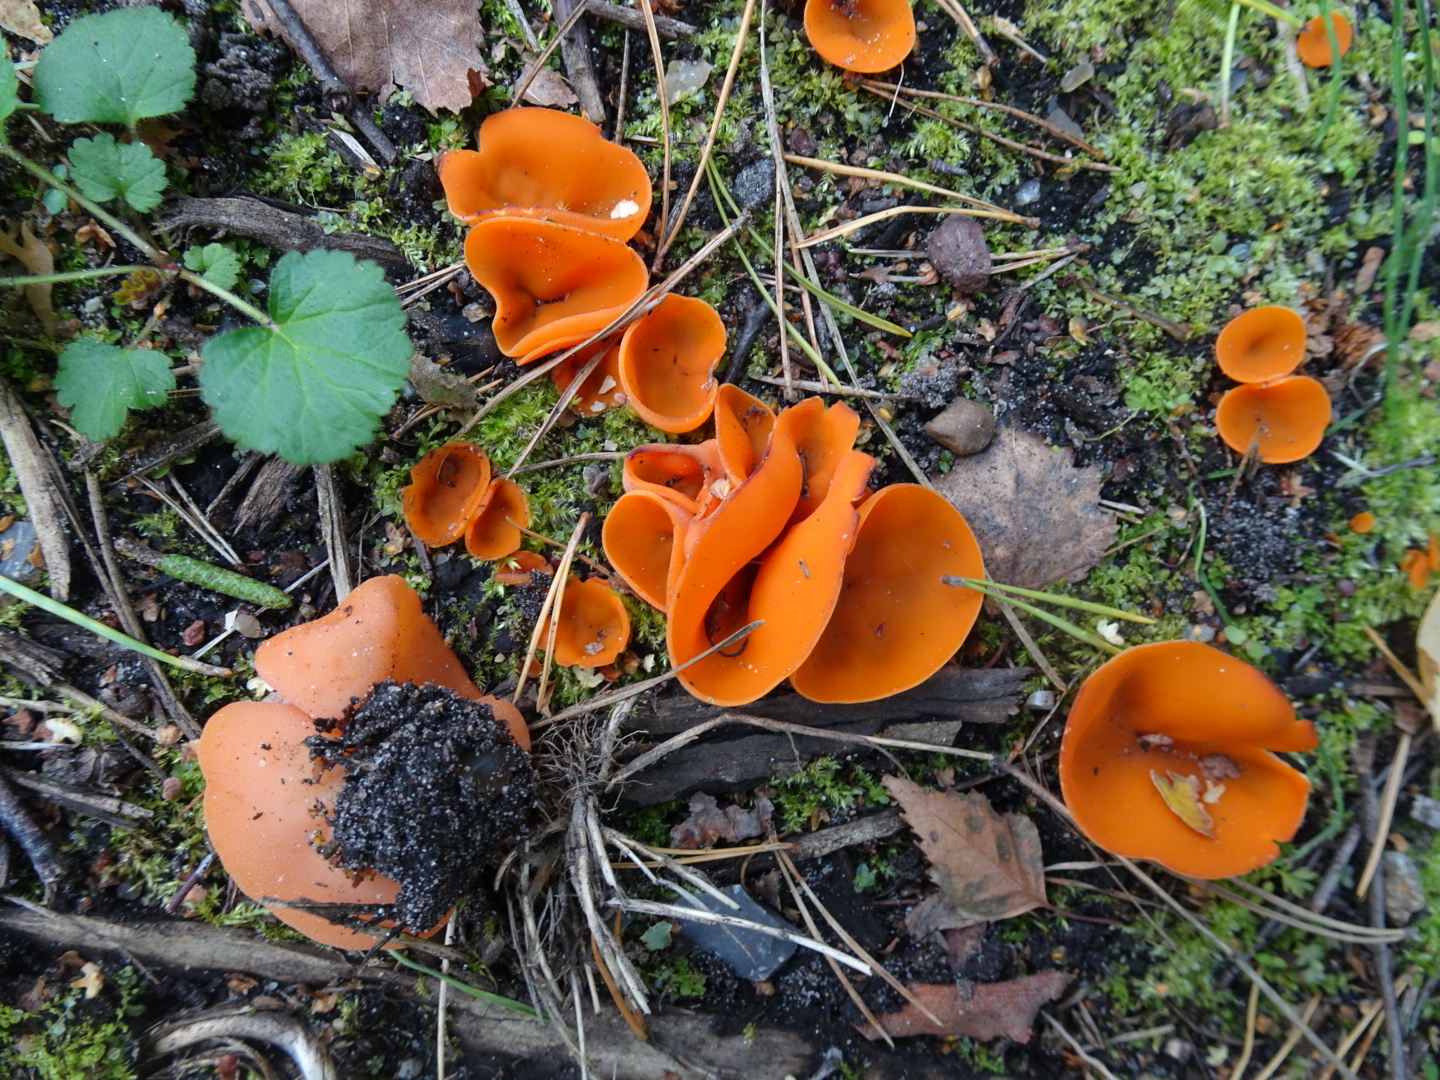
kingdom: Fungi
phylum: Ascomycota
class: Pezizomycetes
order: Pezizales
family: Pyronemataceae
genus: Aleuria
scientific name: Aleuria aurantia
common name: almindelig orangebæger
